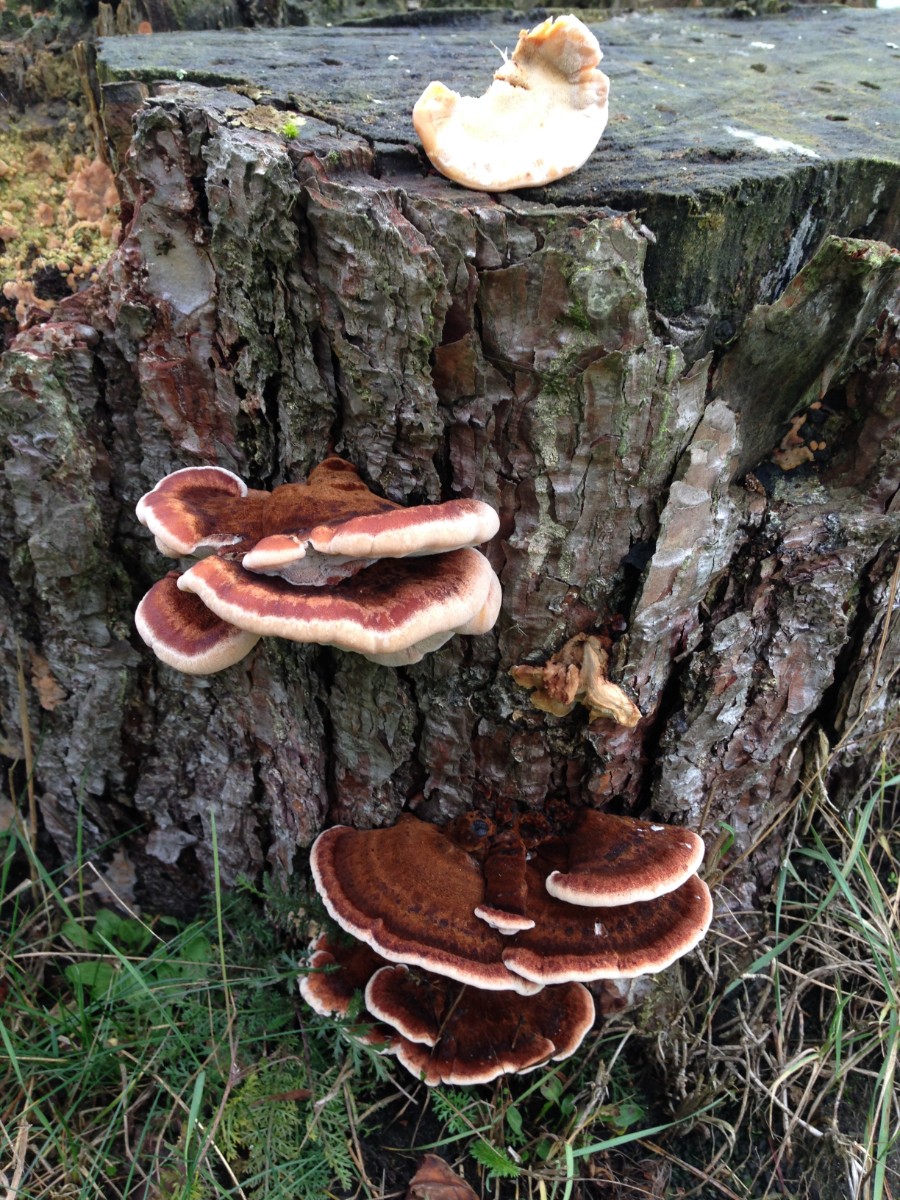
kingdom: Fungi
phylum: Basidiomycota
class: Agaricomycetes
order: Polyporales
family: Ischnodermataceae
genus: Ischnoderma
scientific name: Ischnoderma benzoinum
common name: gran-tjæreporesvamp
